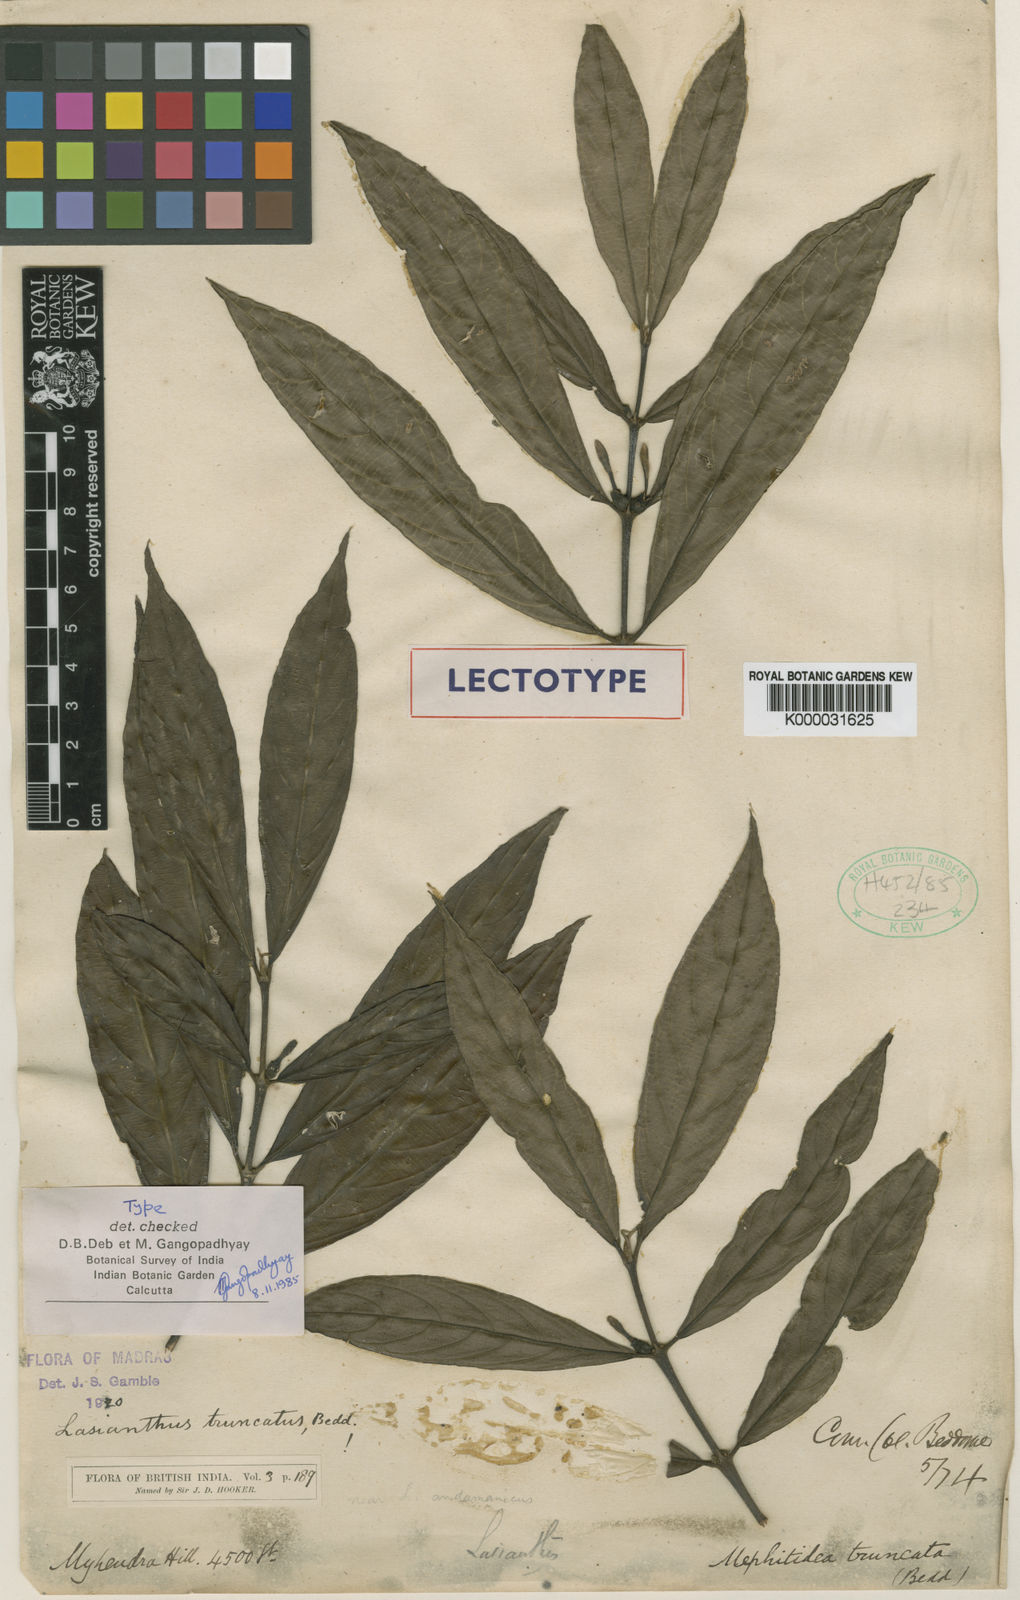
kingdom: Plantae
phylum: Tracheophyta
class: Magnoliopsida
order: Gentianales
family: Rubiaceae
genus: Lasianthus
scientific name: Lasianthus verticillatus
